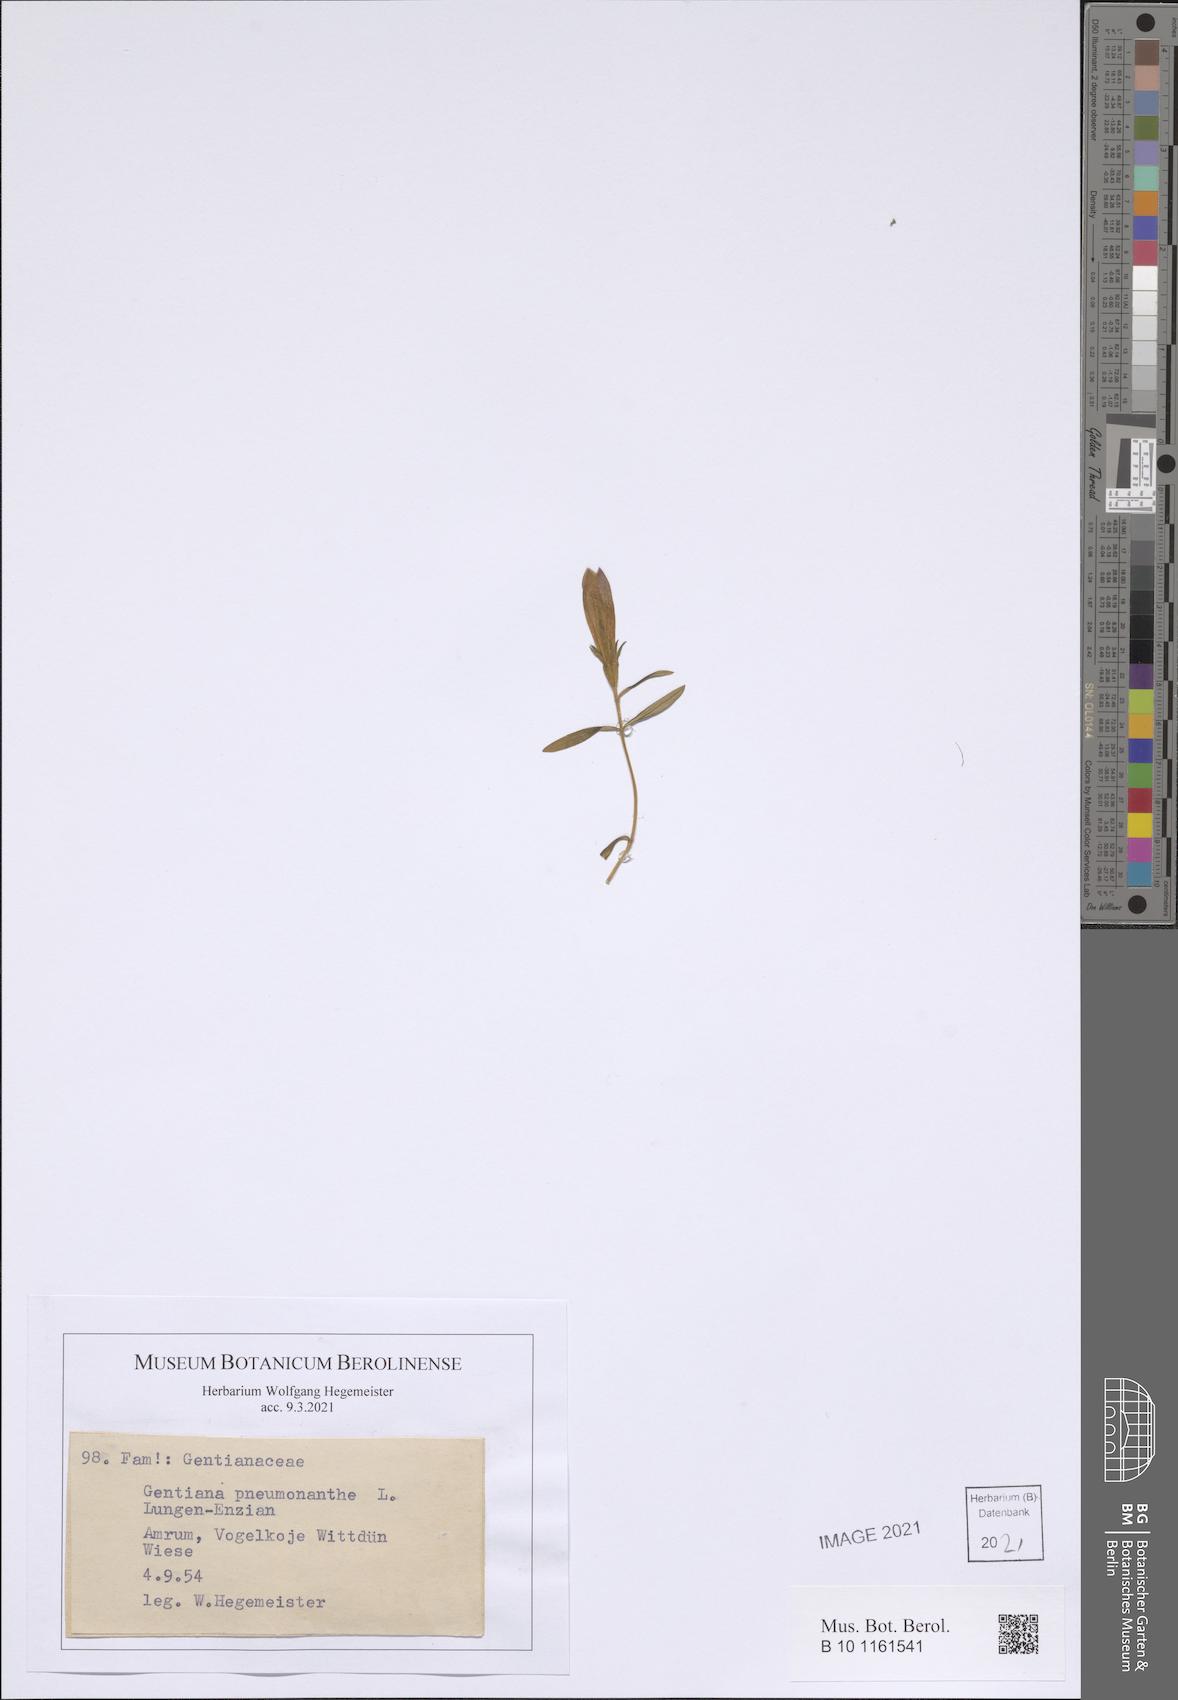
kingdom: Plantae
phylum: Tracheophyta
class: Magnoliopsida
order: Gentianales
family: Gentianaceae
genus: Gentiana
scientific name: Gentiana pneumonanthe
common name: Marsh gentian
